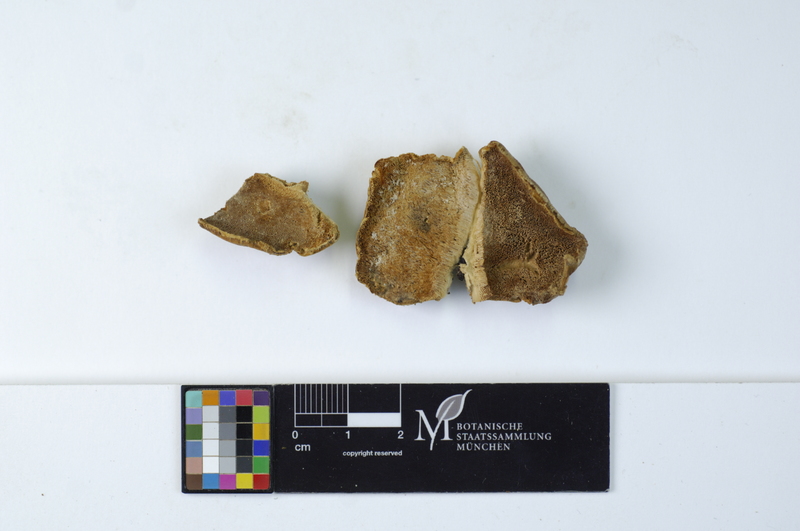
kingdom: Fungi
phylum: Basidiomycota
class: Agaricomycetes
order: Polyporales
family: Polyporaceae
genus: Trametes
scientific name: Trametes pubescens
